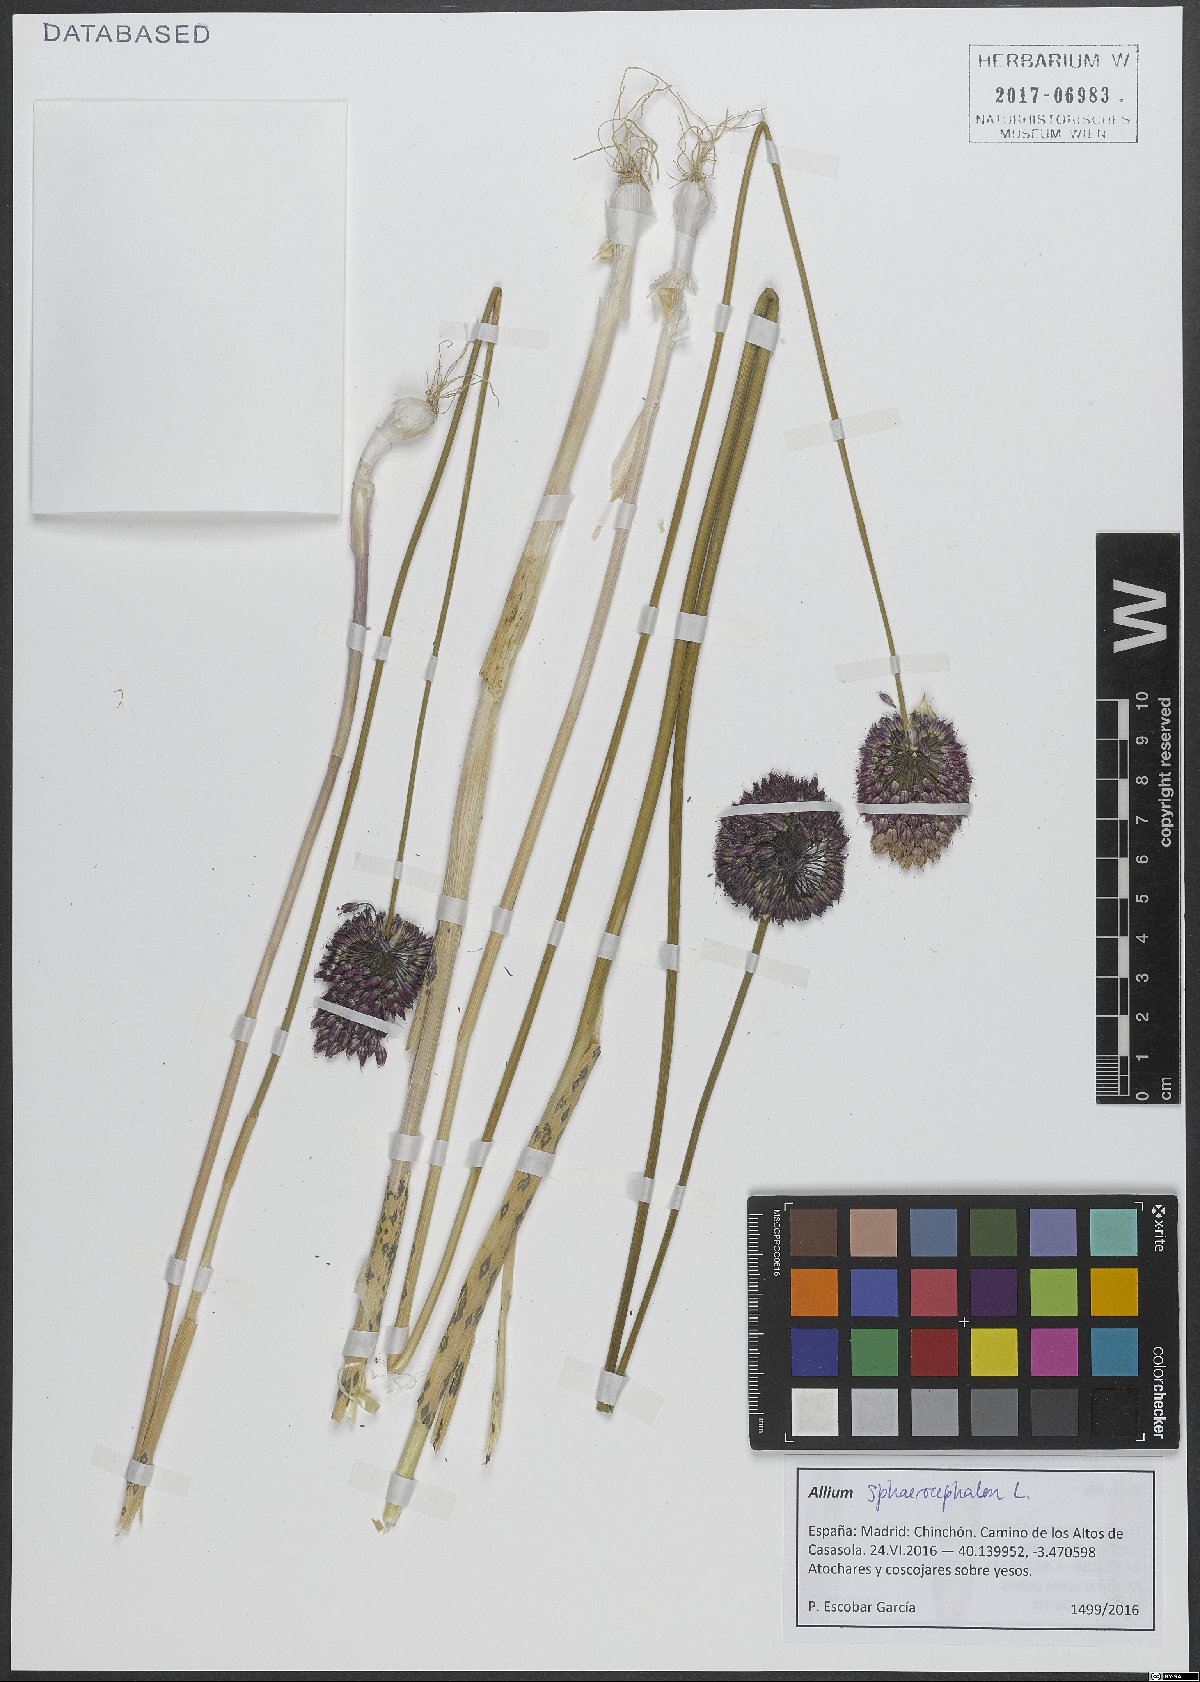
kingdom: Plantae
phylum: Tracheophyta
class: Liliopsida
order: Asparagales
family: Amaryllidaceae
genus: Allium
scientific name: Allium sphaerocephalon
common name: Round-headed leek
